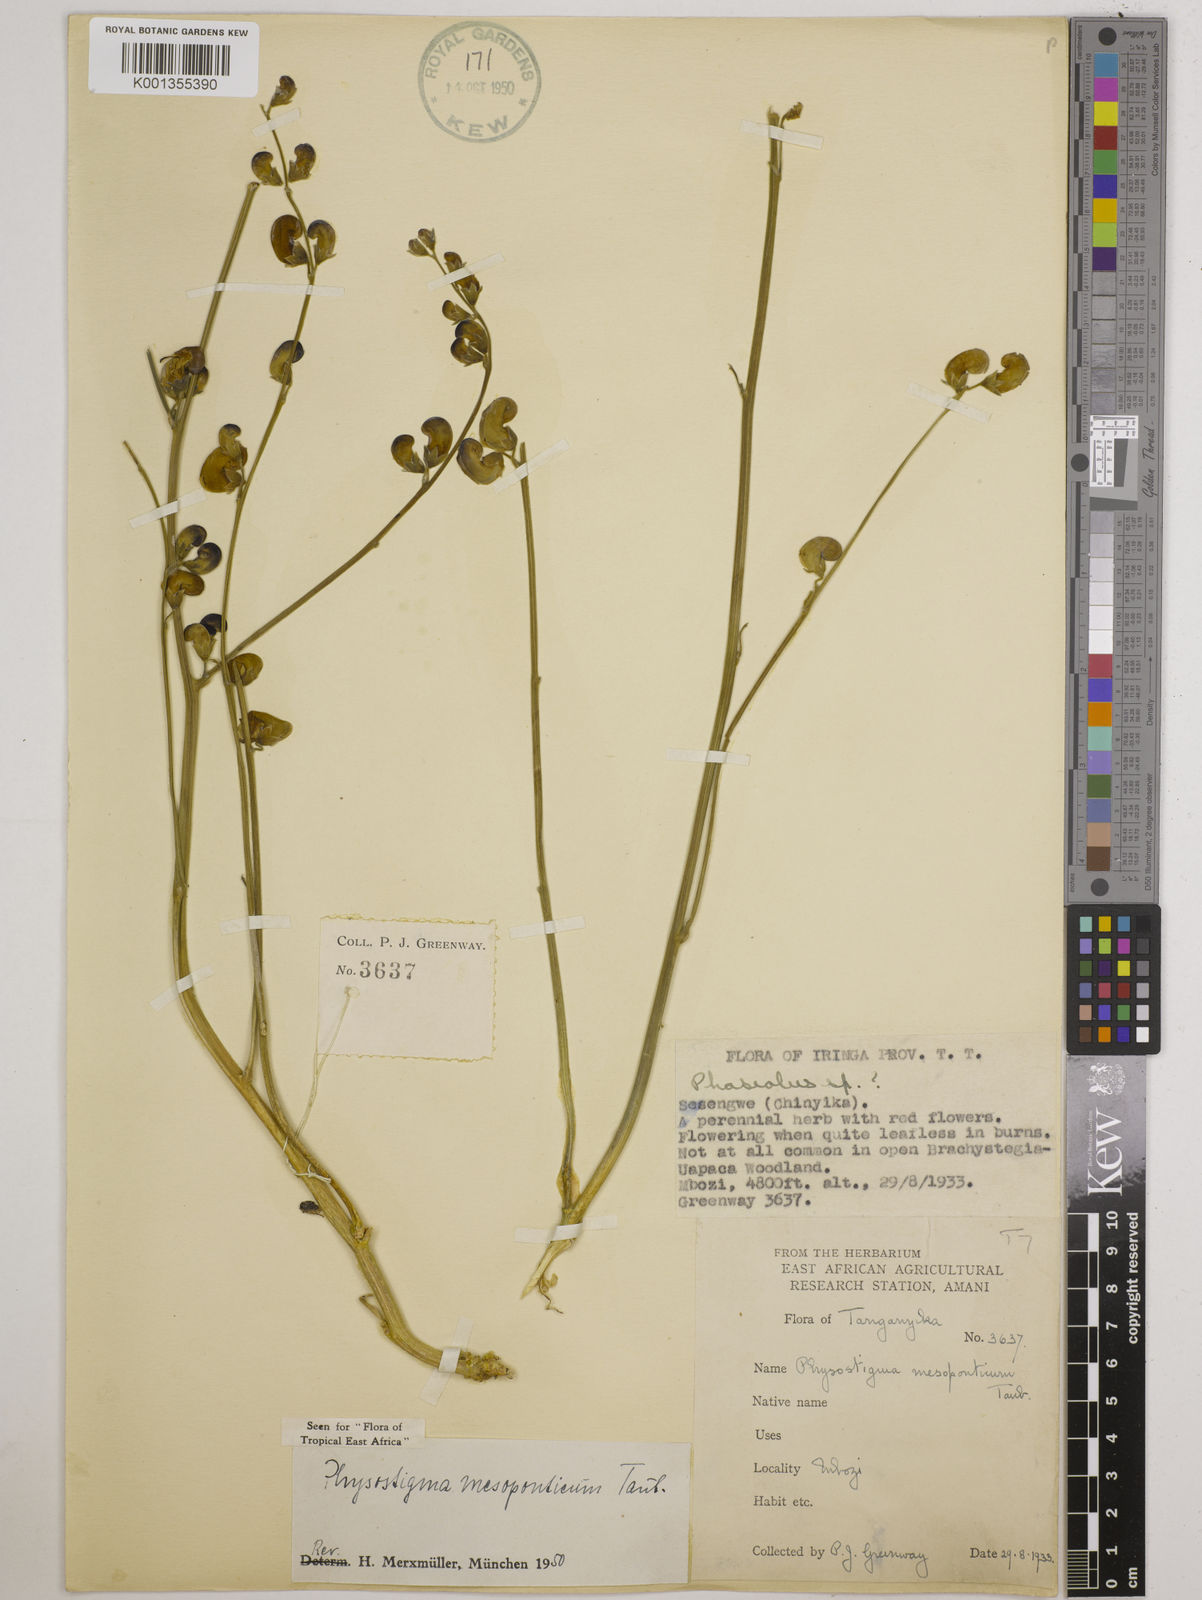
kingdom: Plantae
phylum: Tracheophyta
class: Magnoliopsida
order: Fabales
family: Fabaceae
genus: Physostigma
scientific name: Physostigma mesoponticum
